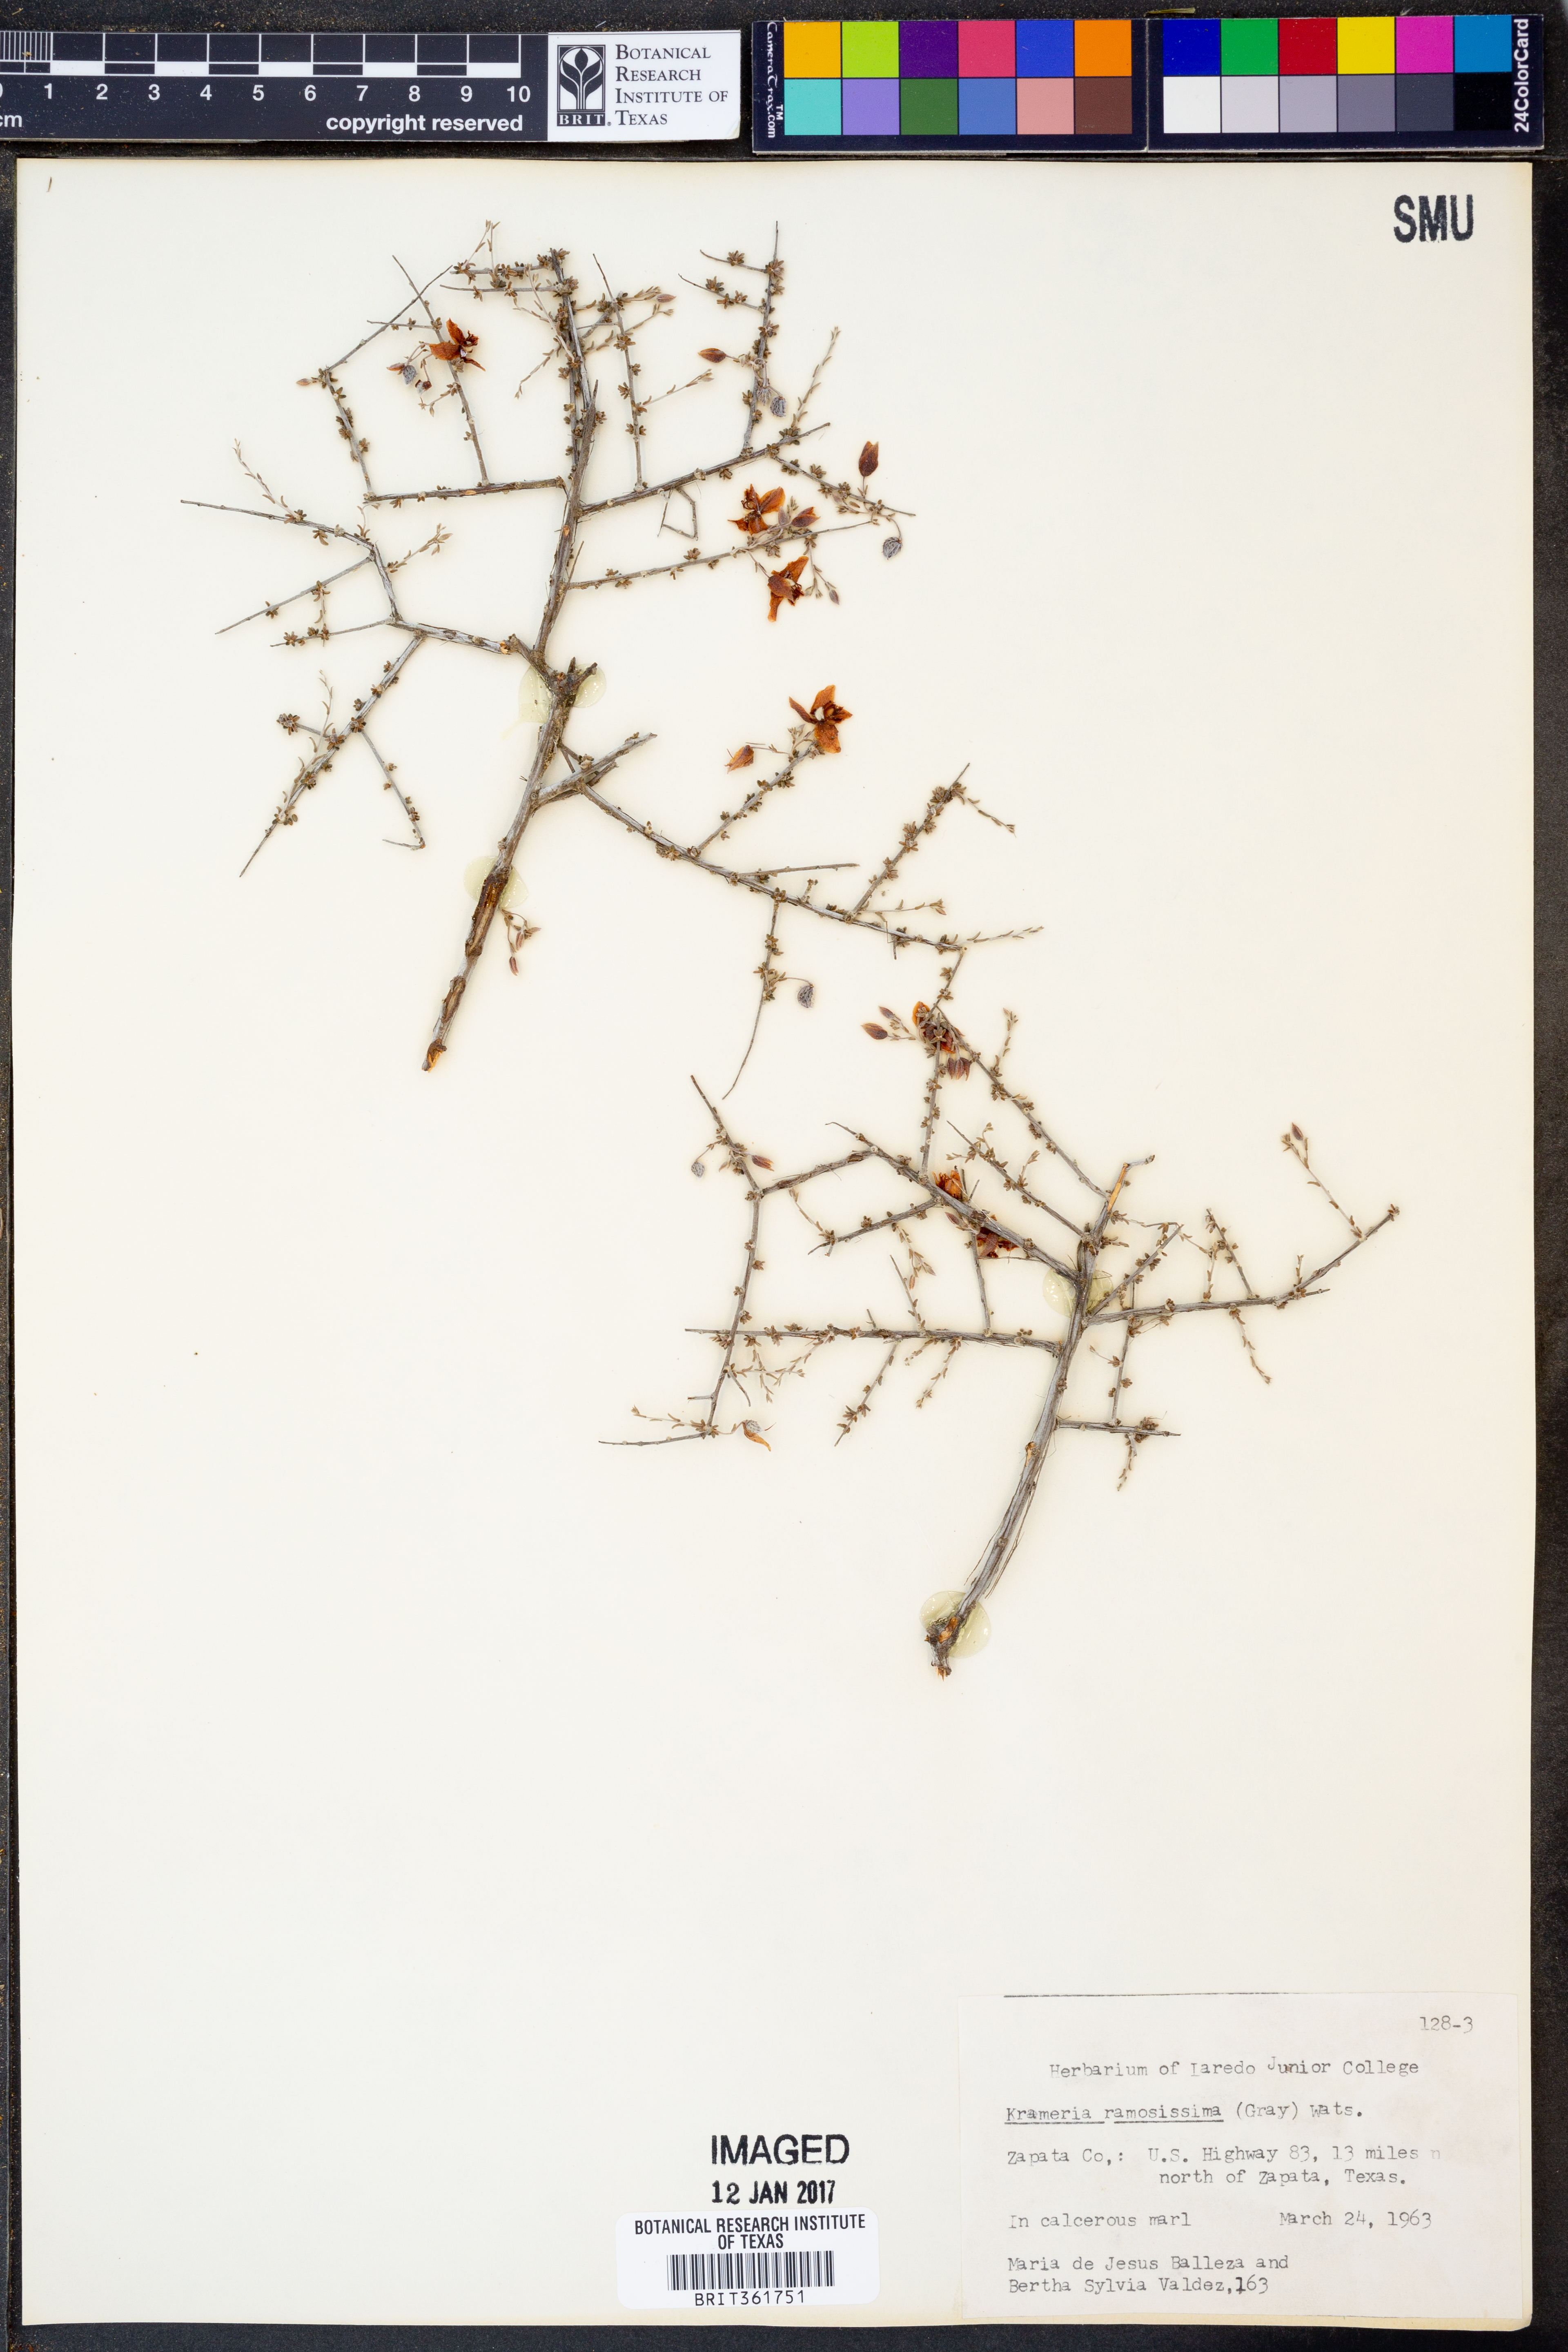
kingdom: Plantae
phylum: Tracheophyta
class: Magnoliopsida
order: Zygophyllales
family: Krameriaceae
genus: Krameria
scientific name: Krameria ramosissima
